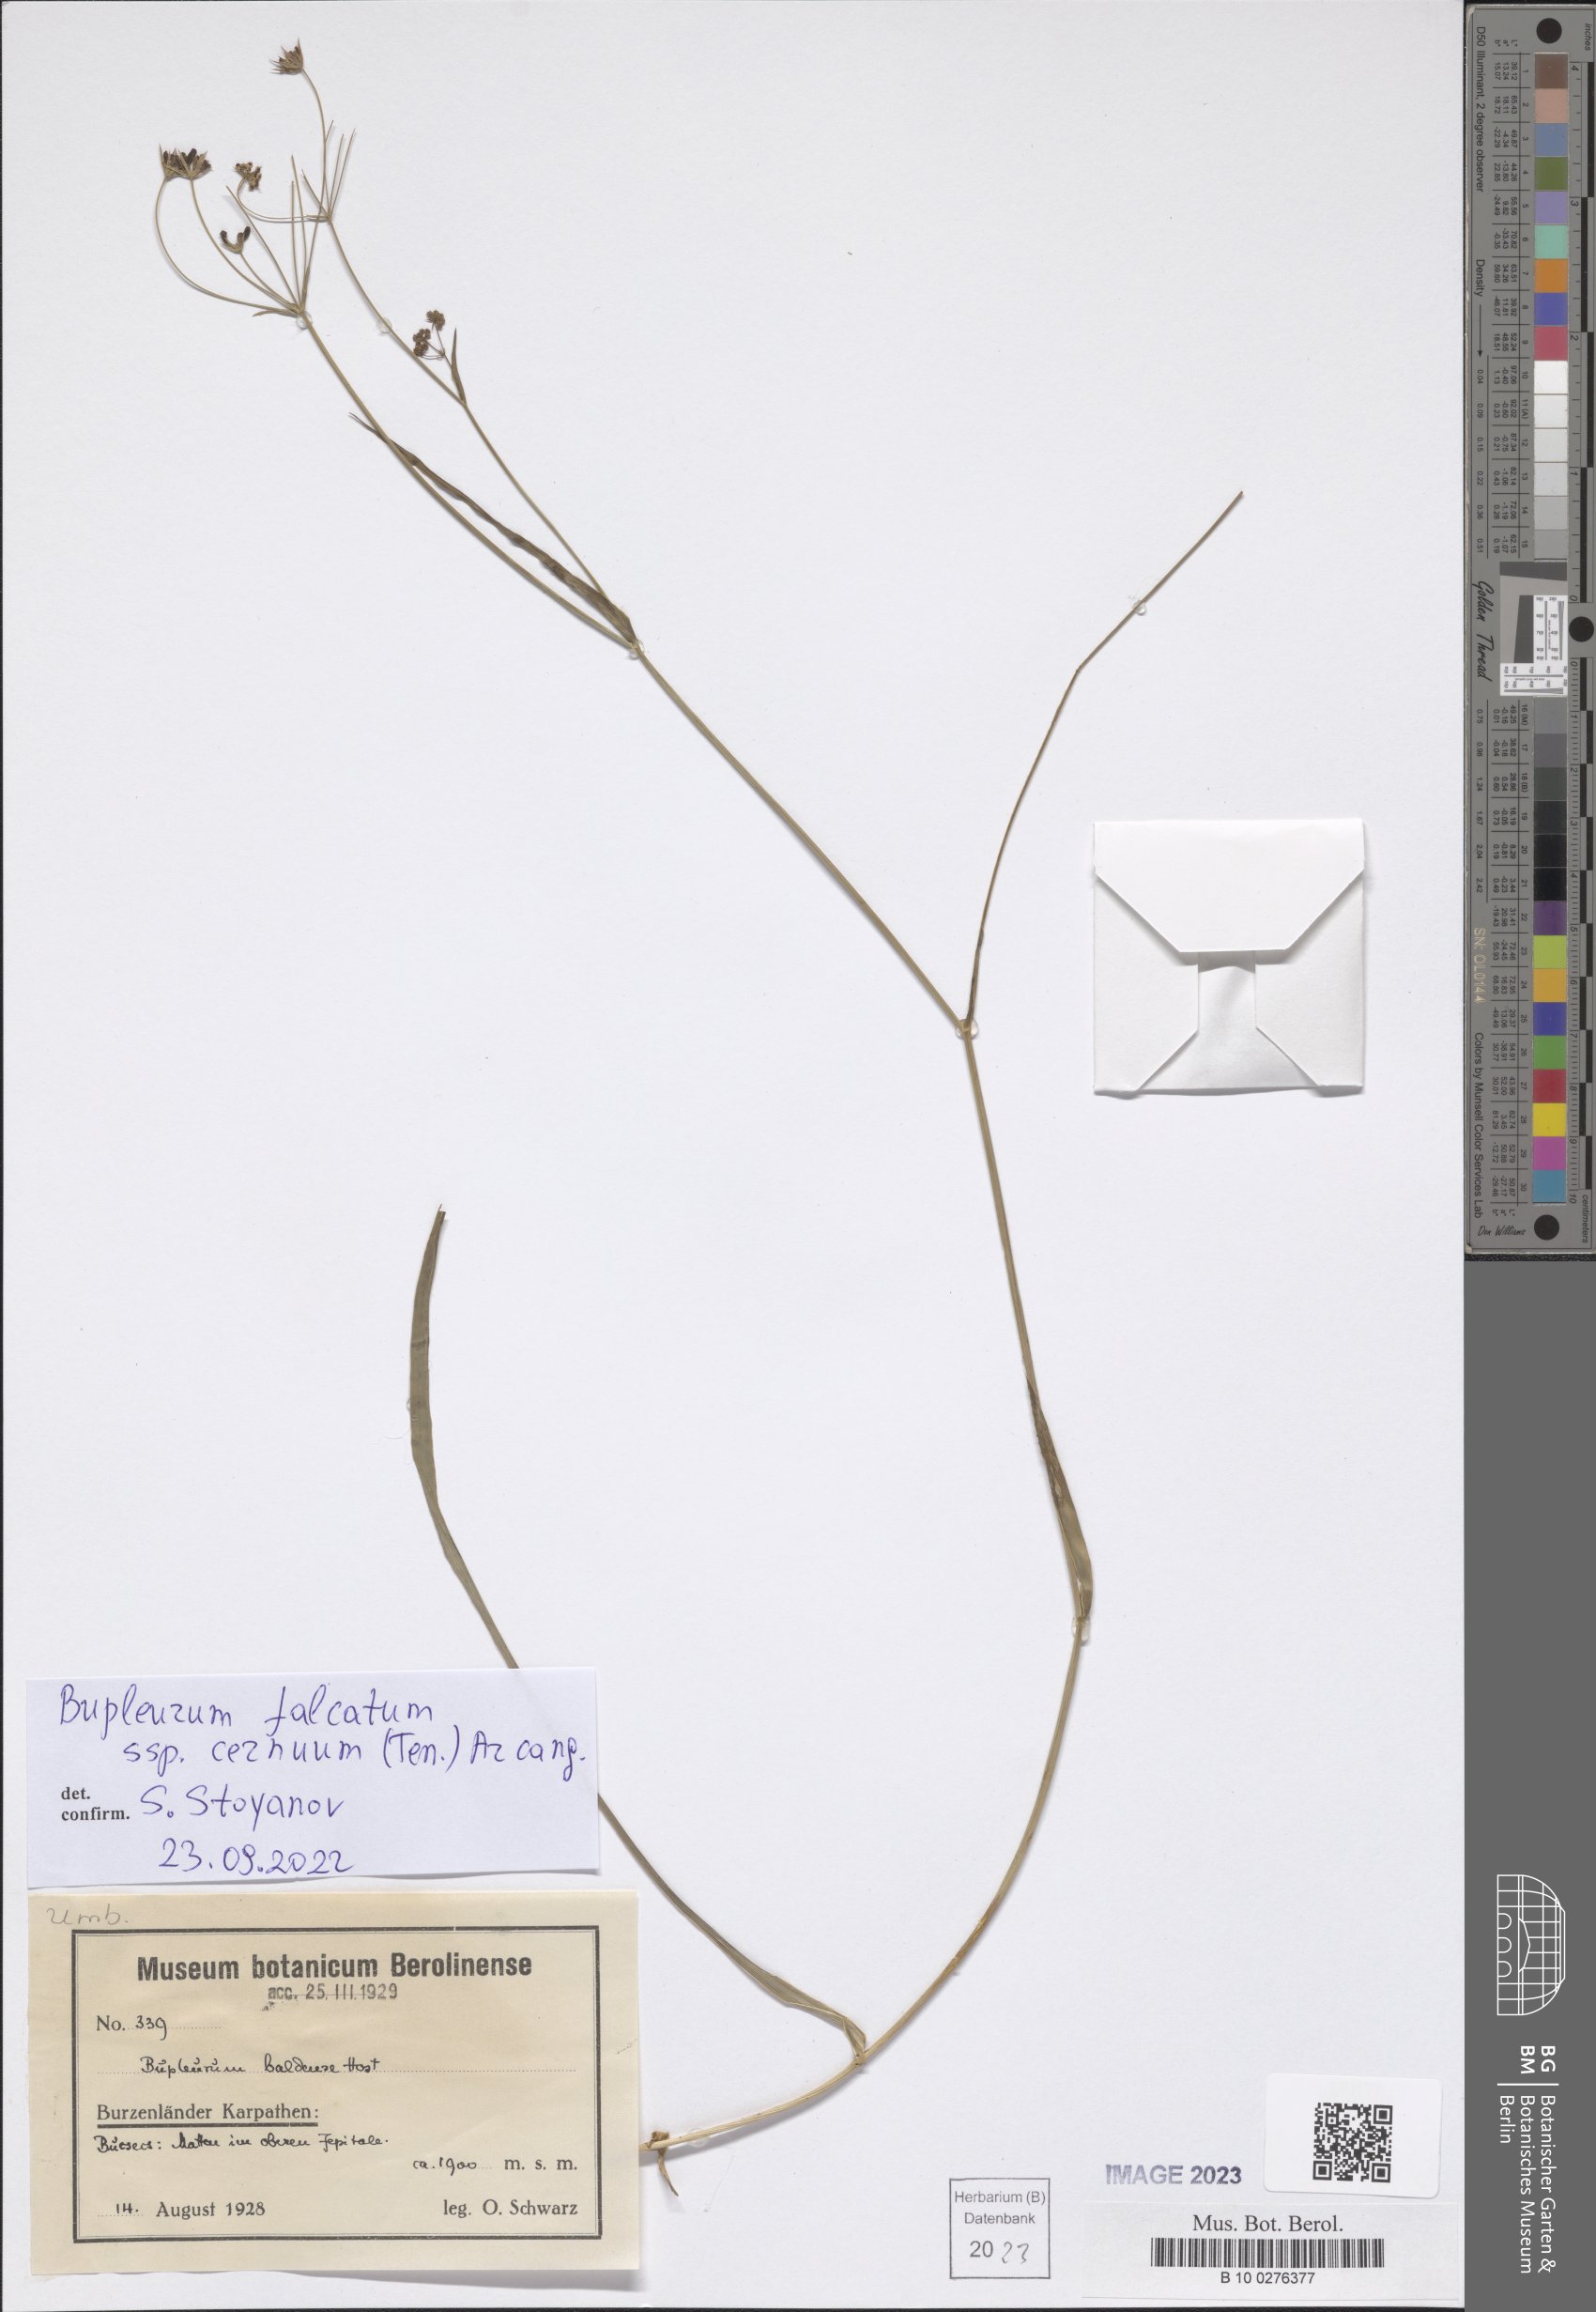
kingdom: Plantae
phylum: Tracheophyta
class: Magnoliopsida
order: Apiales
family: Apiaceae
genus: Bupleurum
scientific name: Bupleurum exaltatum
